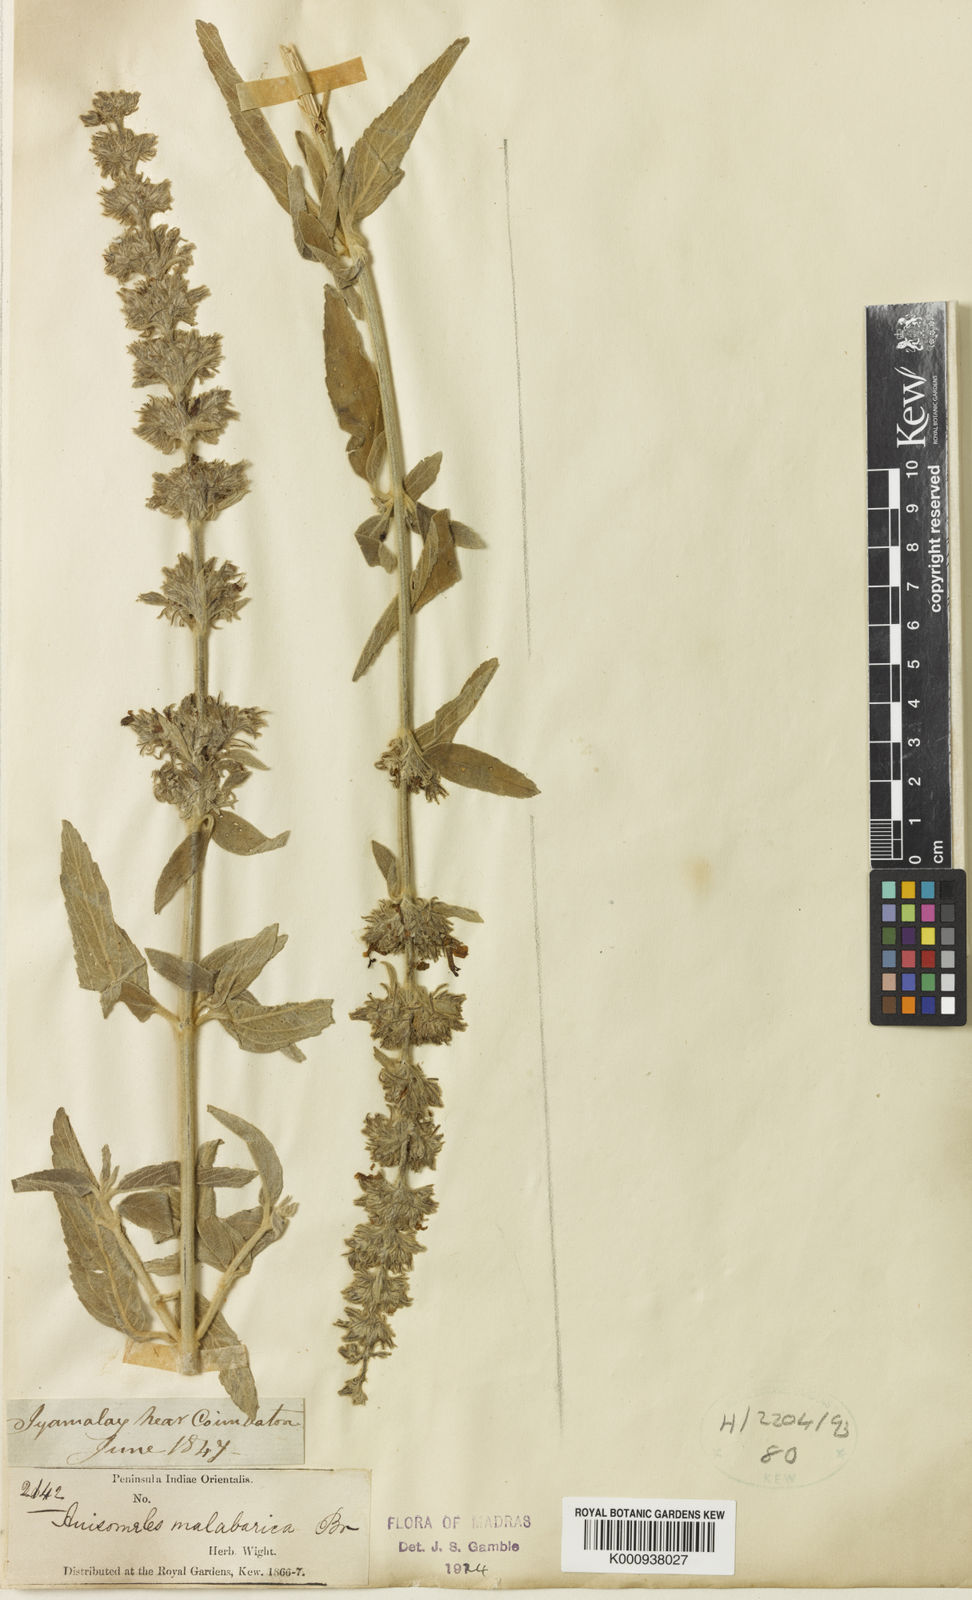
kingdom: Plantae
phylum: Tracheophyta
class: Magnoliopsida
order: Lamiales
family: Lamiaceae
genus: Anisomeles
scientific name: Anisomeles
